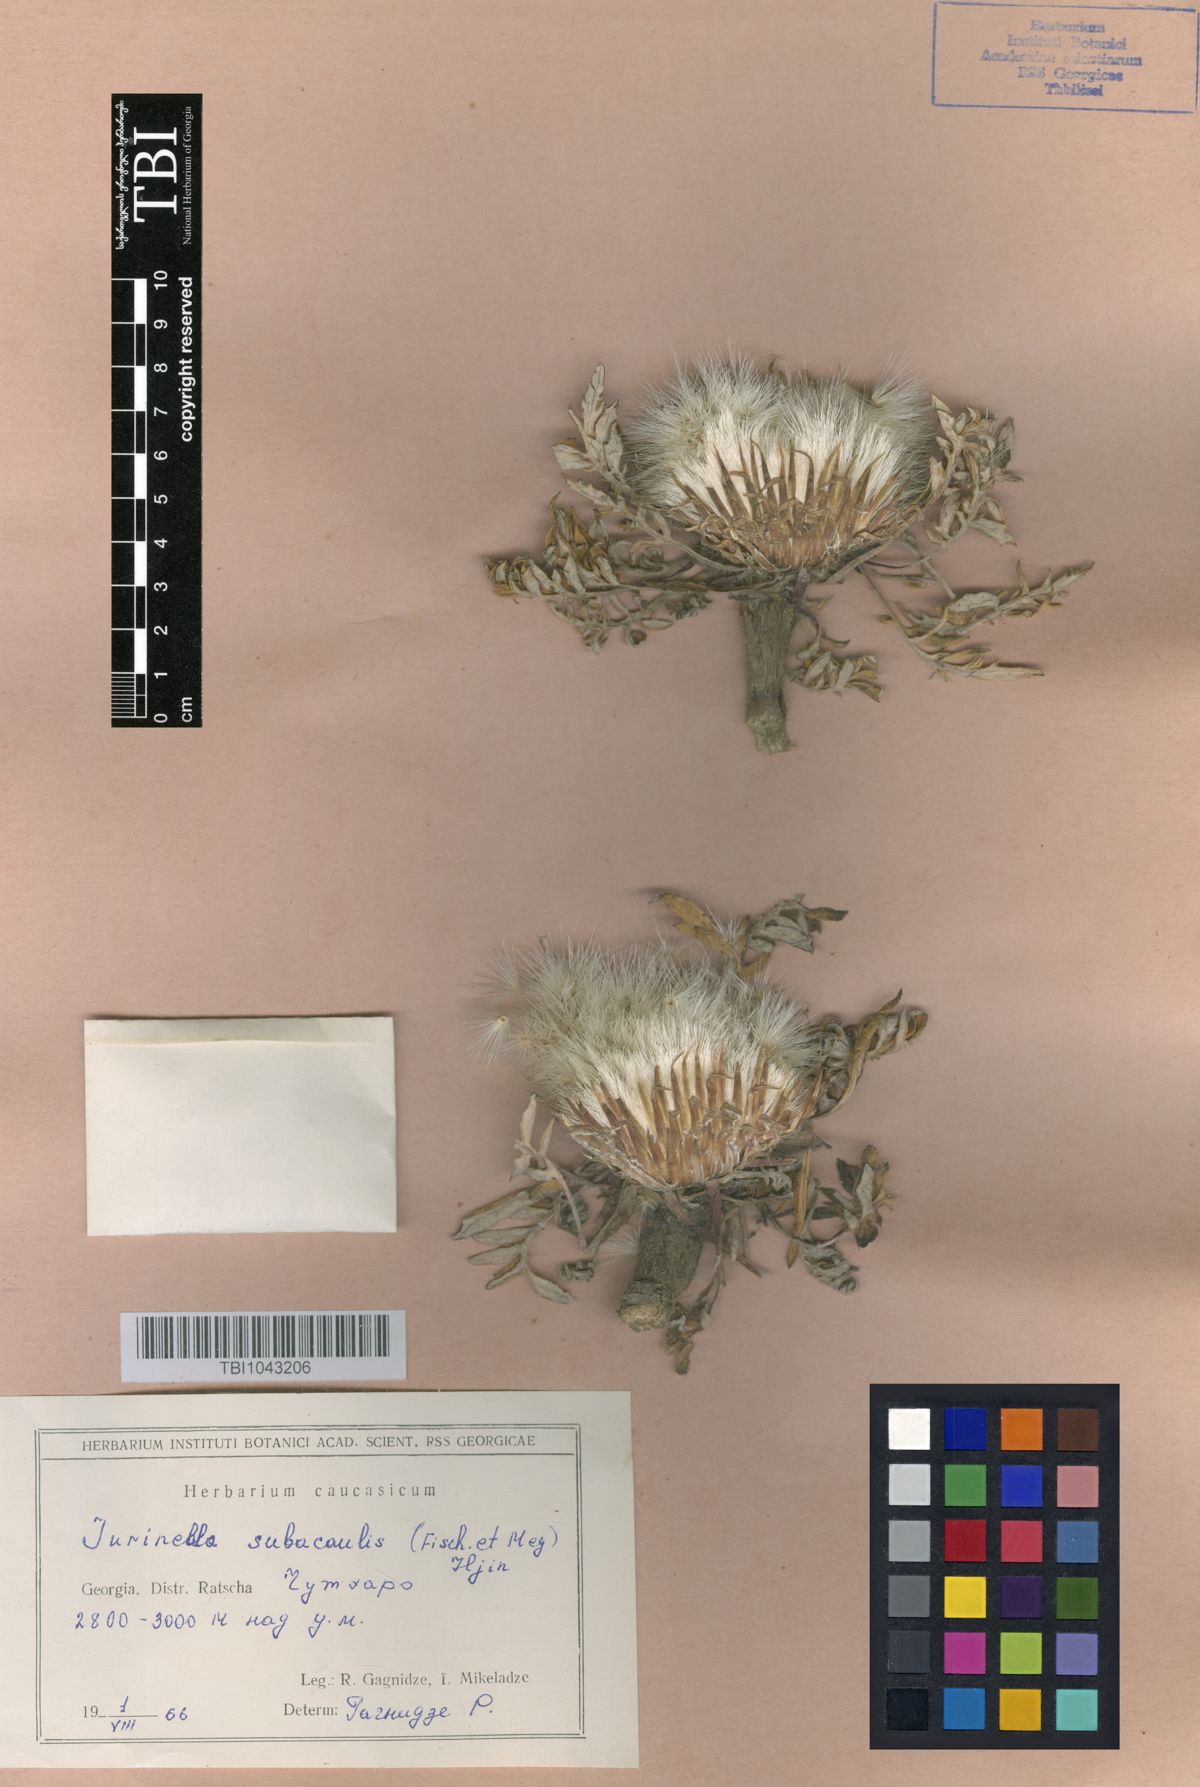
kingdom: Plantae
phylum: Tracheophyta
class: Magnoliopsida
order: Asterales
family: Asteraceae
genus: Jurinea
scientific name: Jurinea moschus
